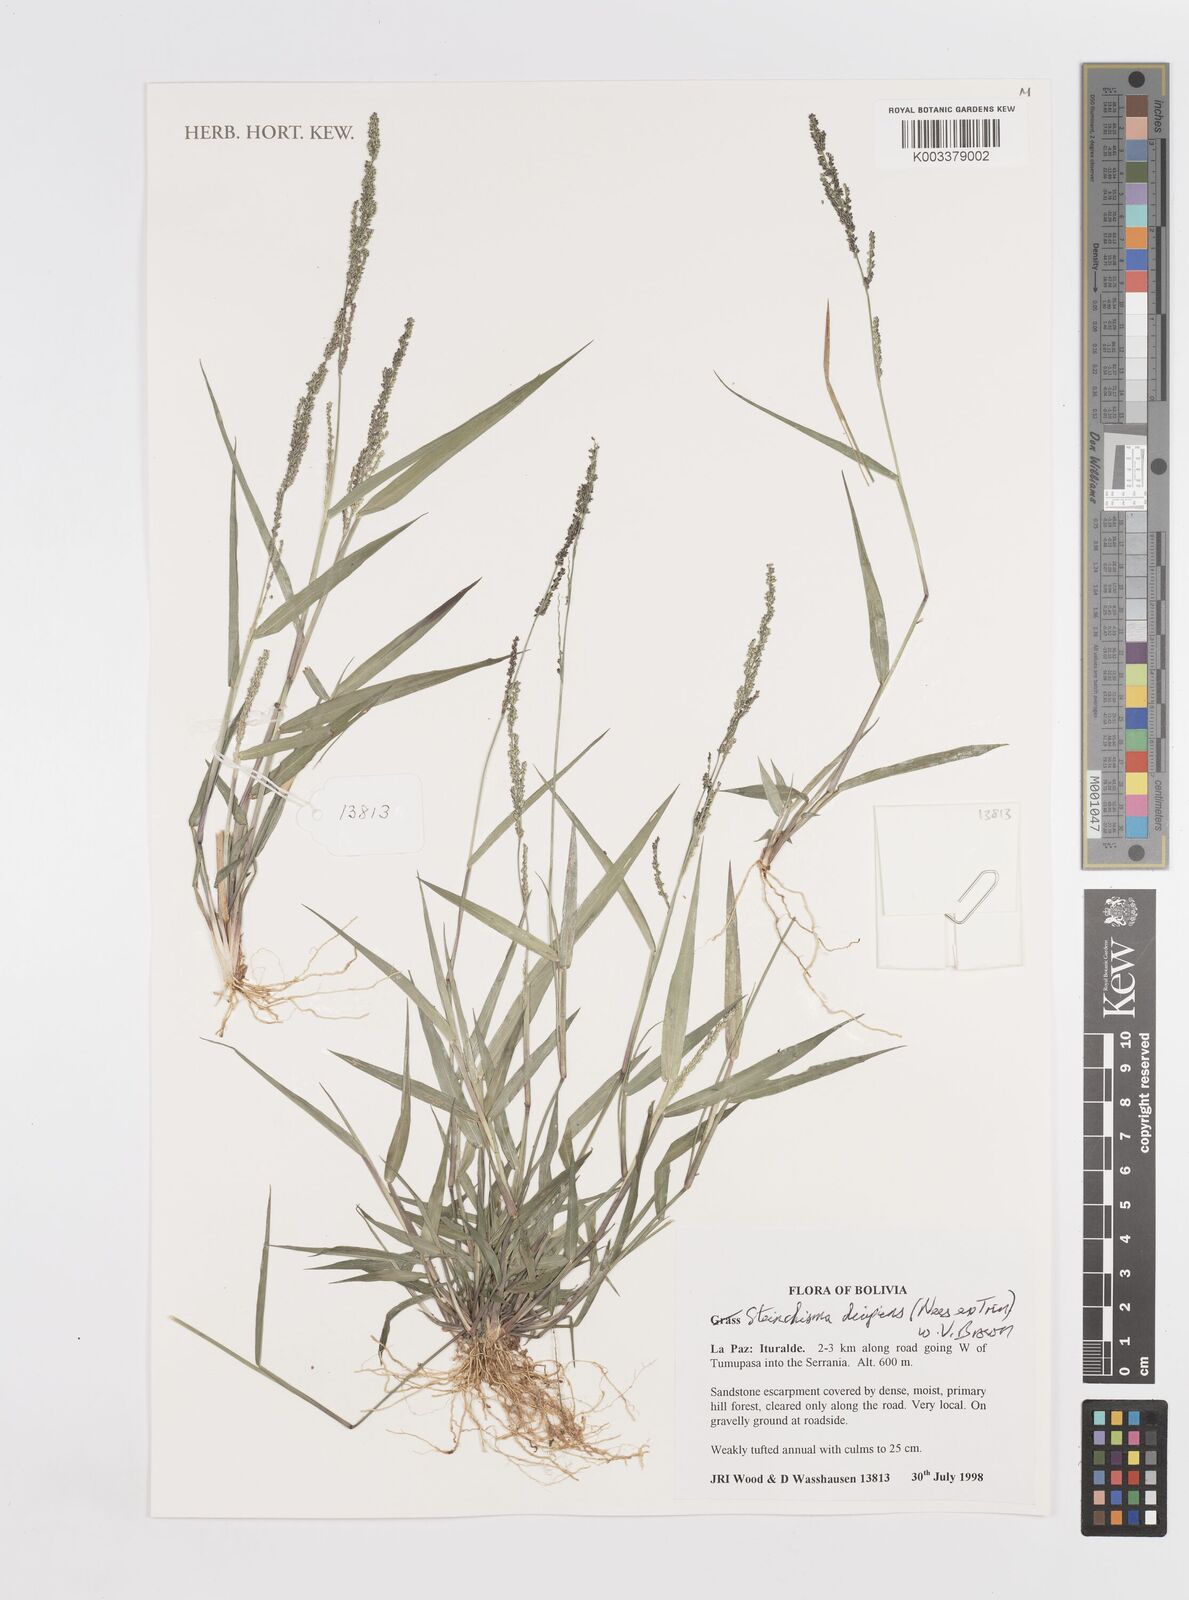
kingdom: Plantae
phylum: Tracheophyta
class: Liliopsida
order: Poales
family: Poaceae
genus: Steinchisma
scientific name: Steinchisma decipiens
